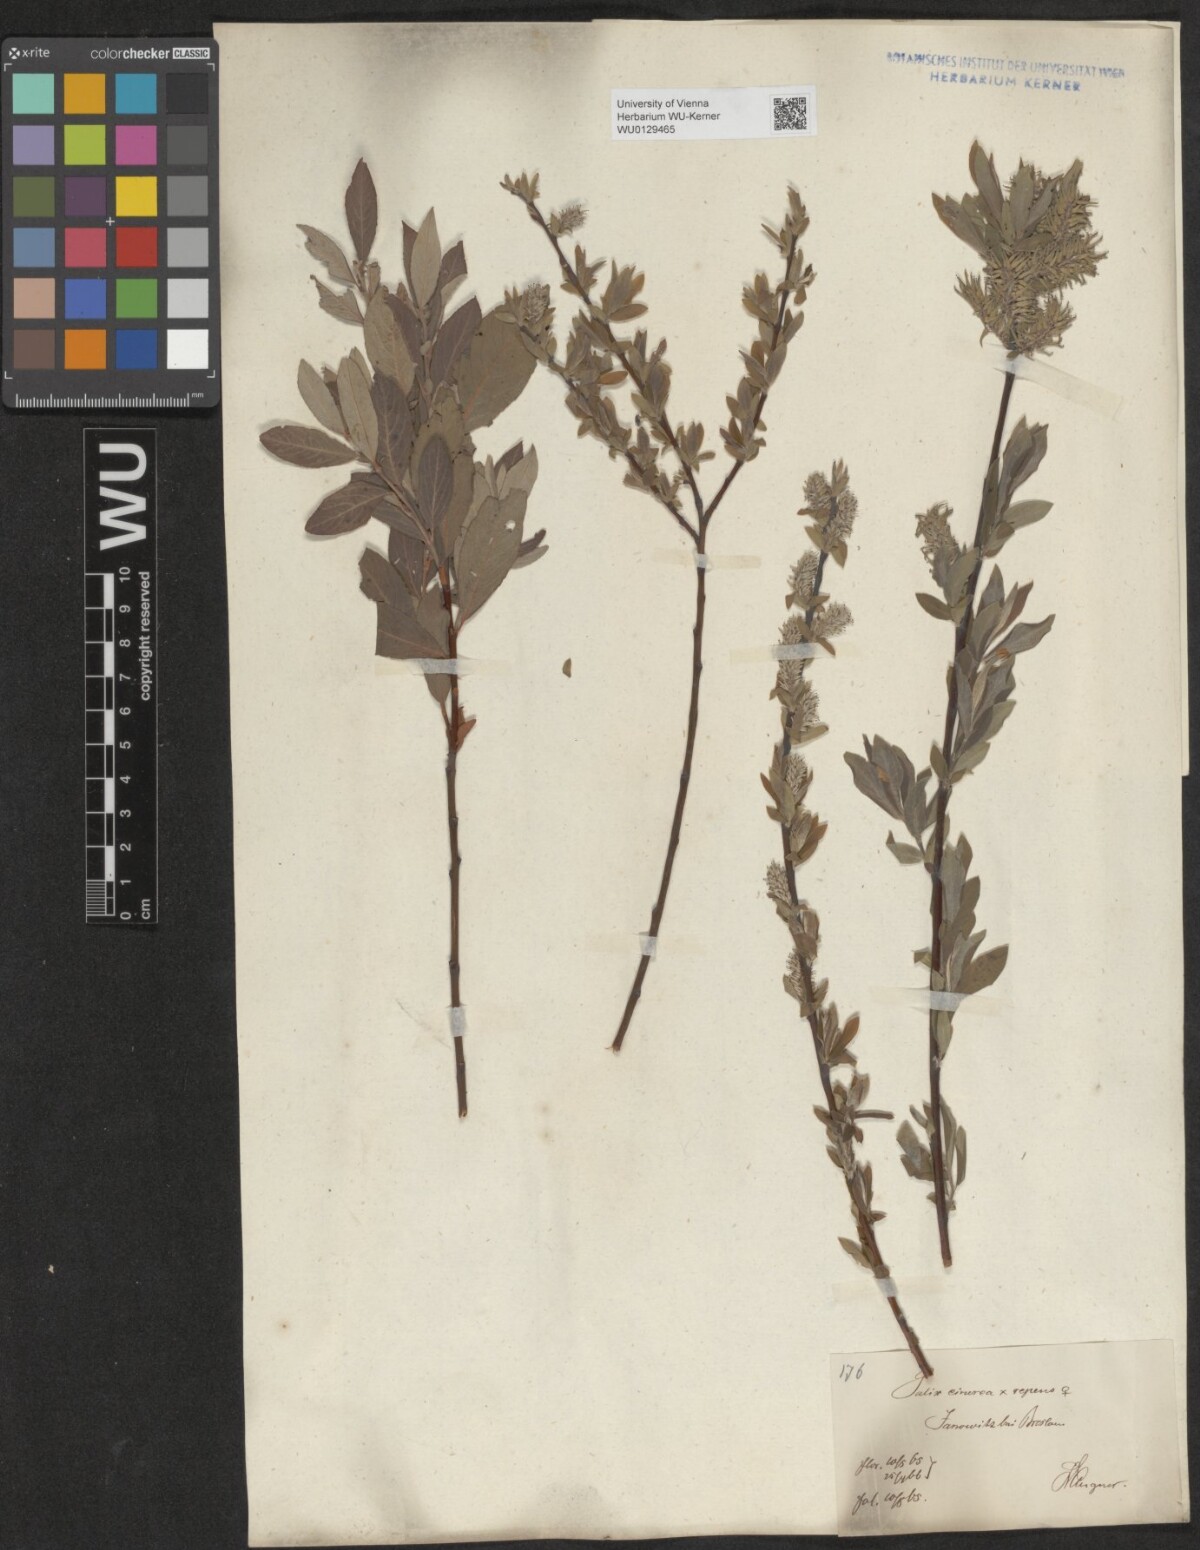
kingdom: Plantae
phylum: Tracheophyta
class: Magnoliopsida
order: Malpighiales
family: Salicaceae
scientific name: Salicaceae
